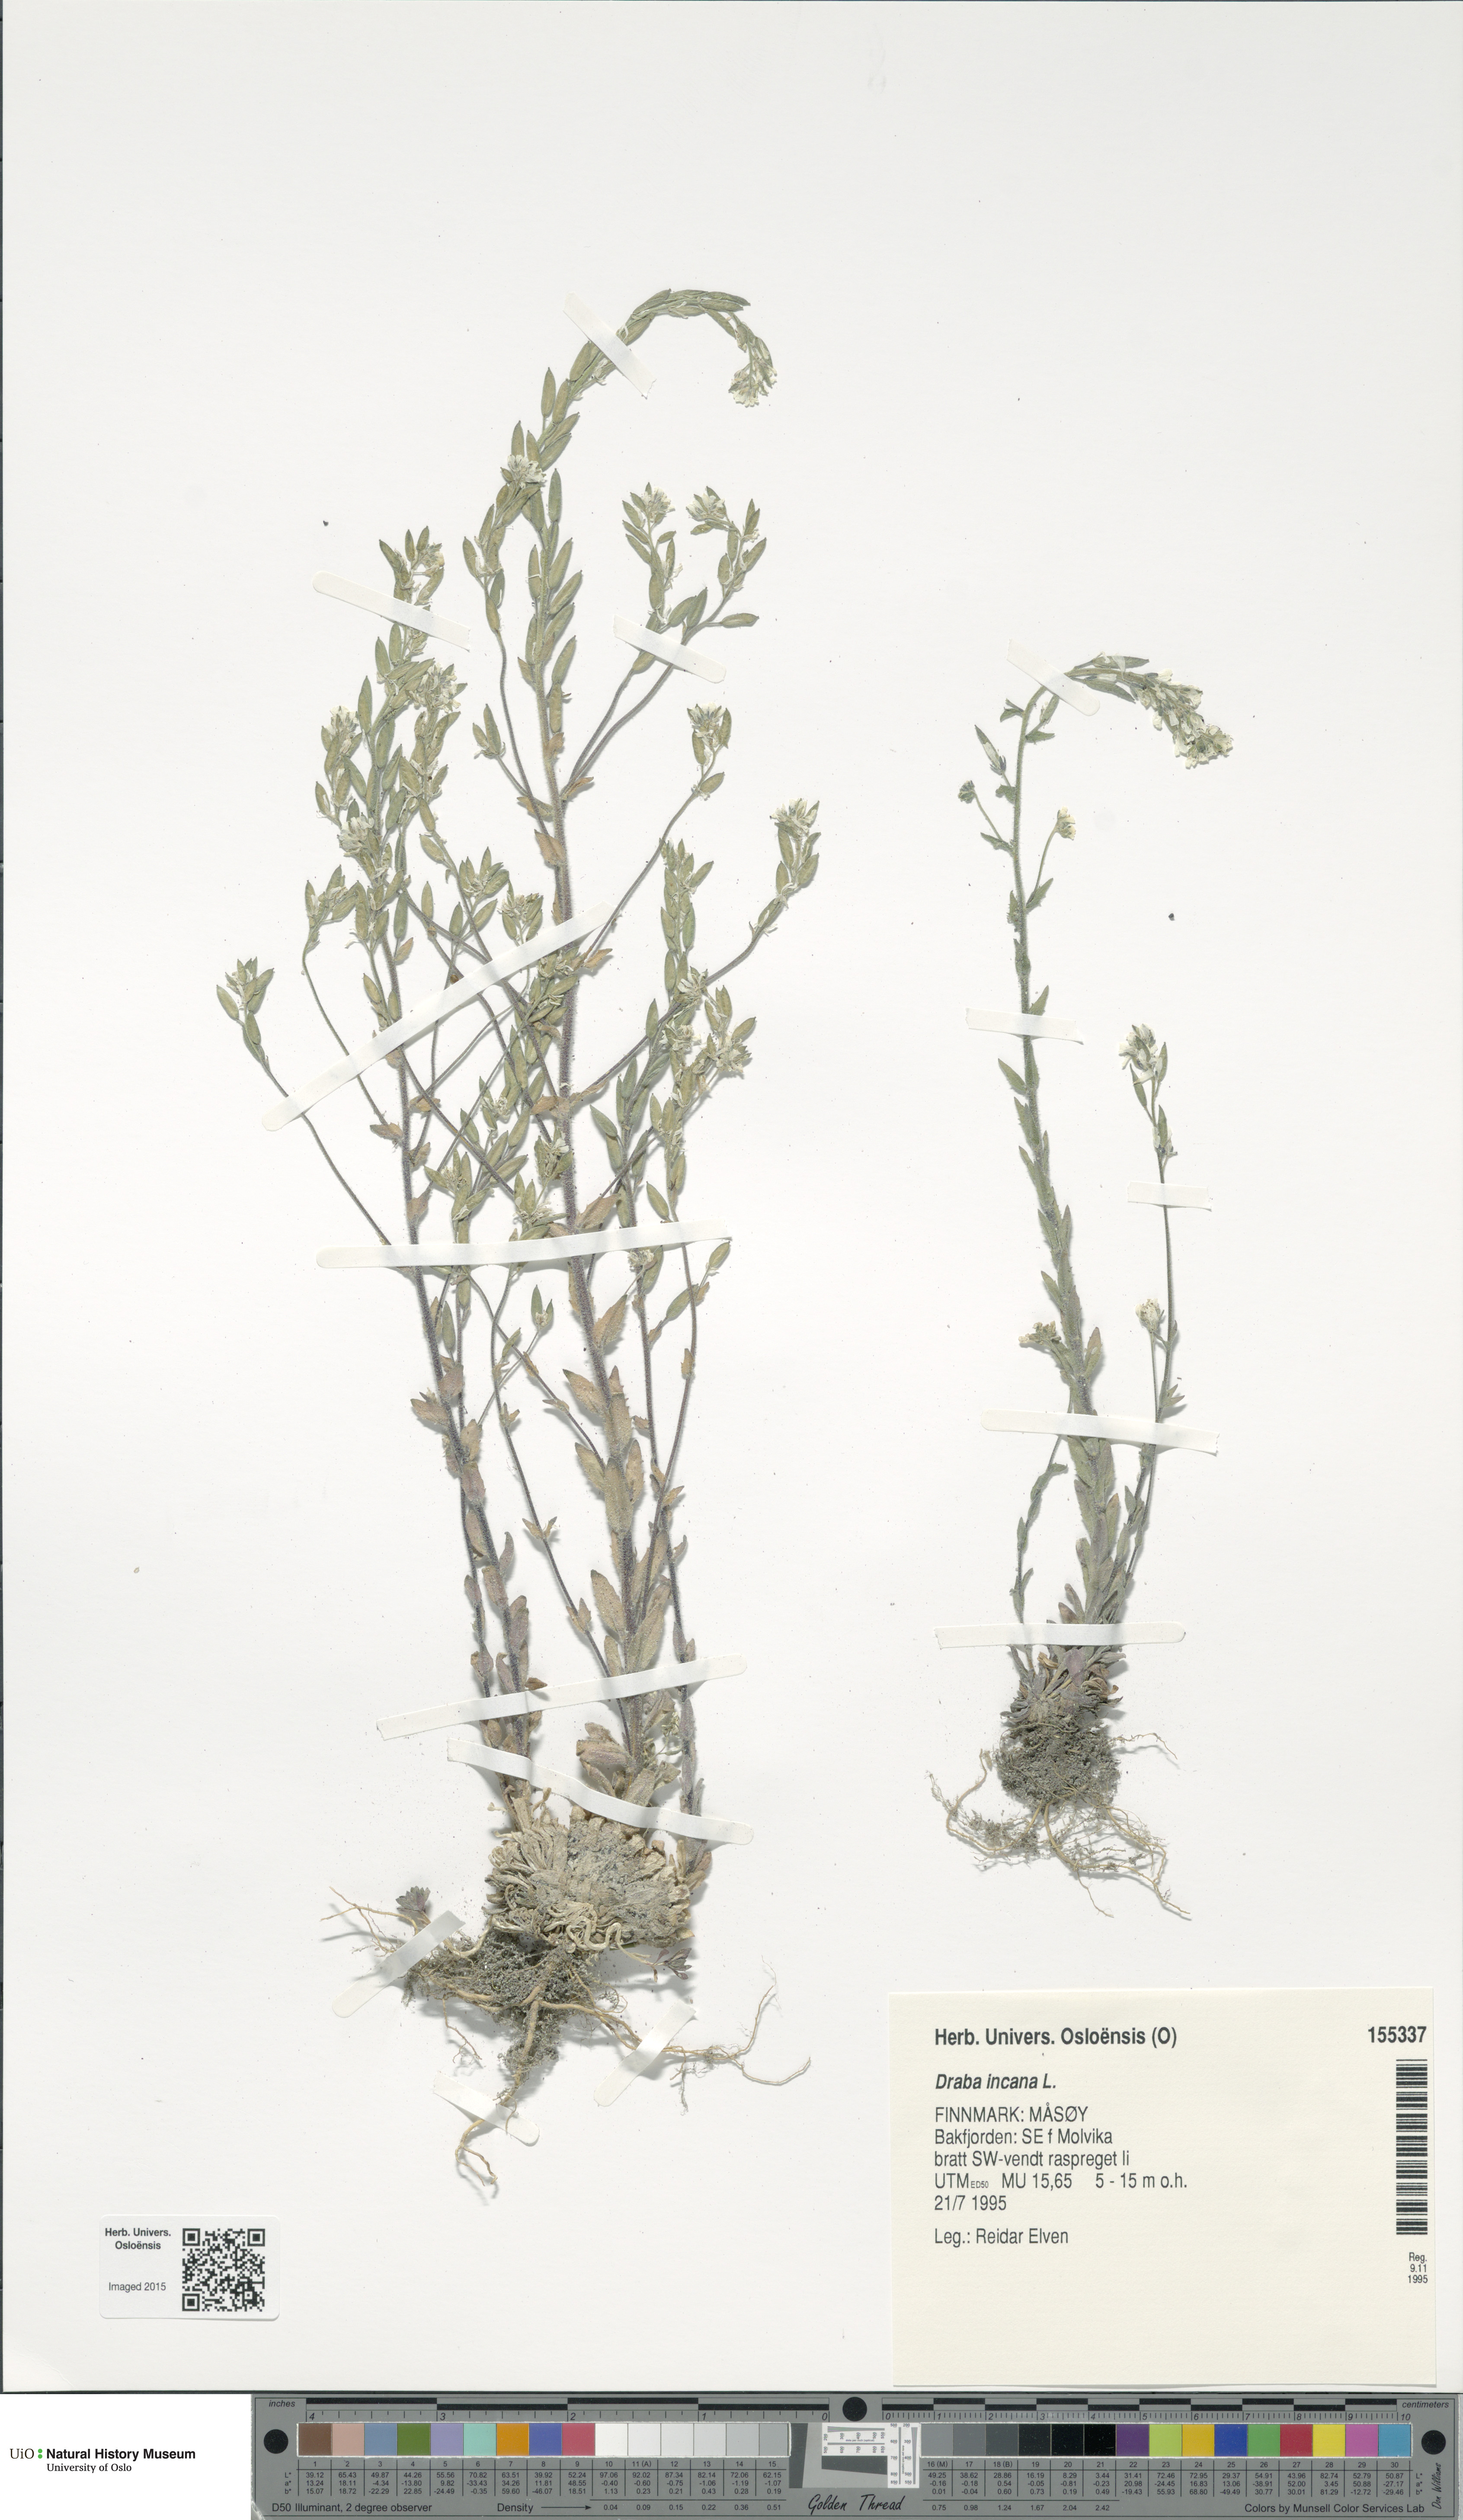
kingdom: Plantae
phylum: Tracheophyta
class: Magnoliopsida
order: Brassicales
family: Brassicaceae
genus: Draba
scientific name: Draba incana
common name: Hoary whitlow-grass
